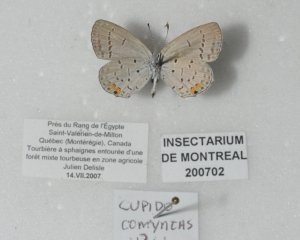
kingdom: Animalia
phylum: Arthropoda
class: Insecta
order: Lepidoptera
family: Lycaenidae
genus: Elkalyce
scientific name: Elkalyce comyntas
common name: Eastern Tailed-Blue
